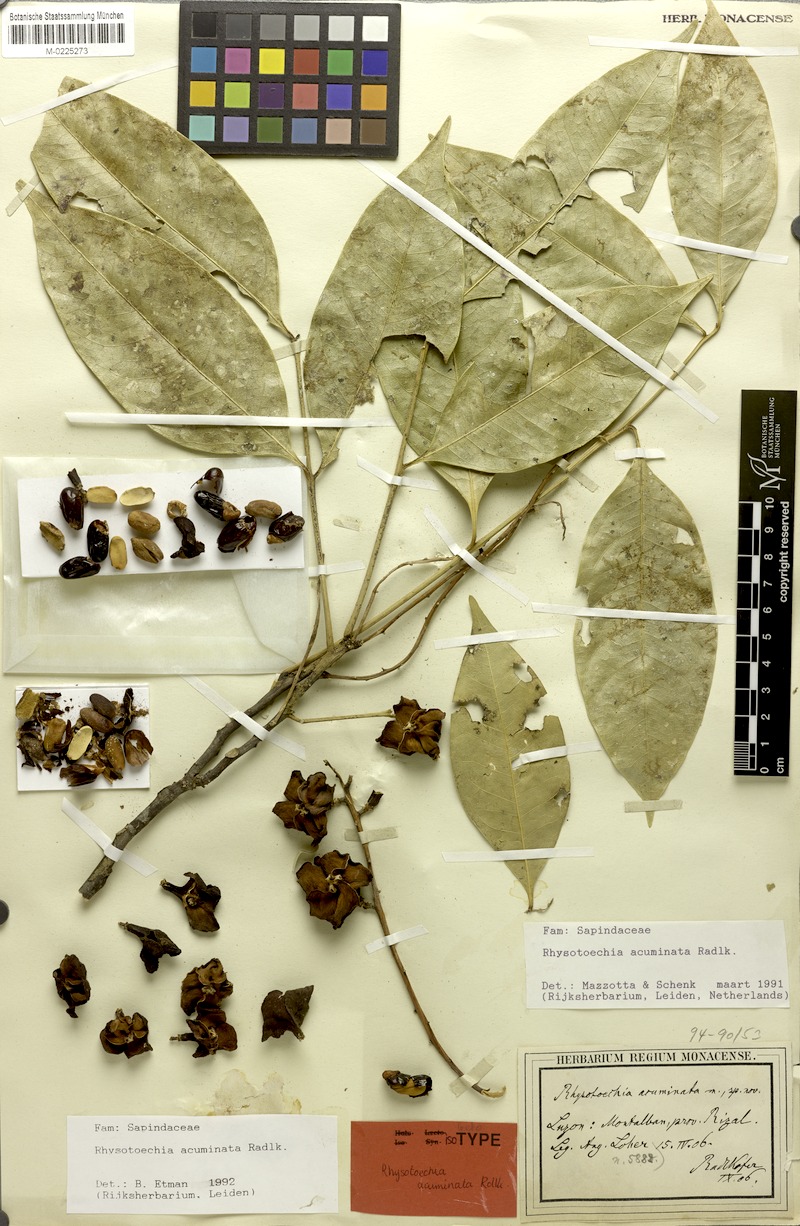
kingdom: Plantae
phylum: Tracheophyta
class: Magnoliopsida
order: Sapindales
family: Sapindaceae
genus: Rhysotoechia
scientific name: Rhysotoechia ramiflora
